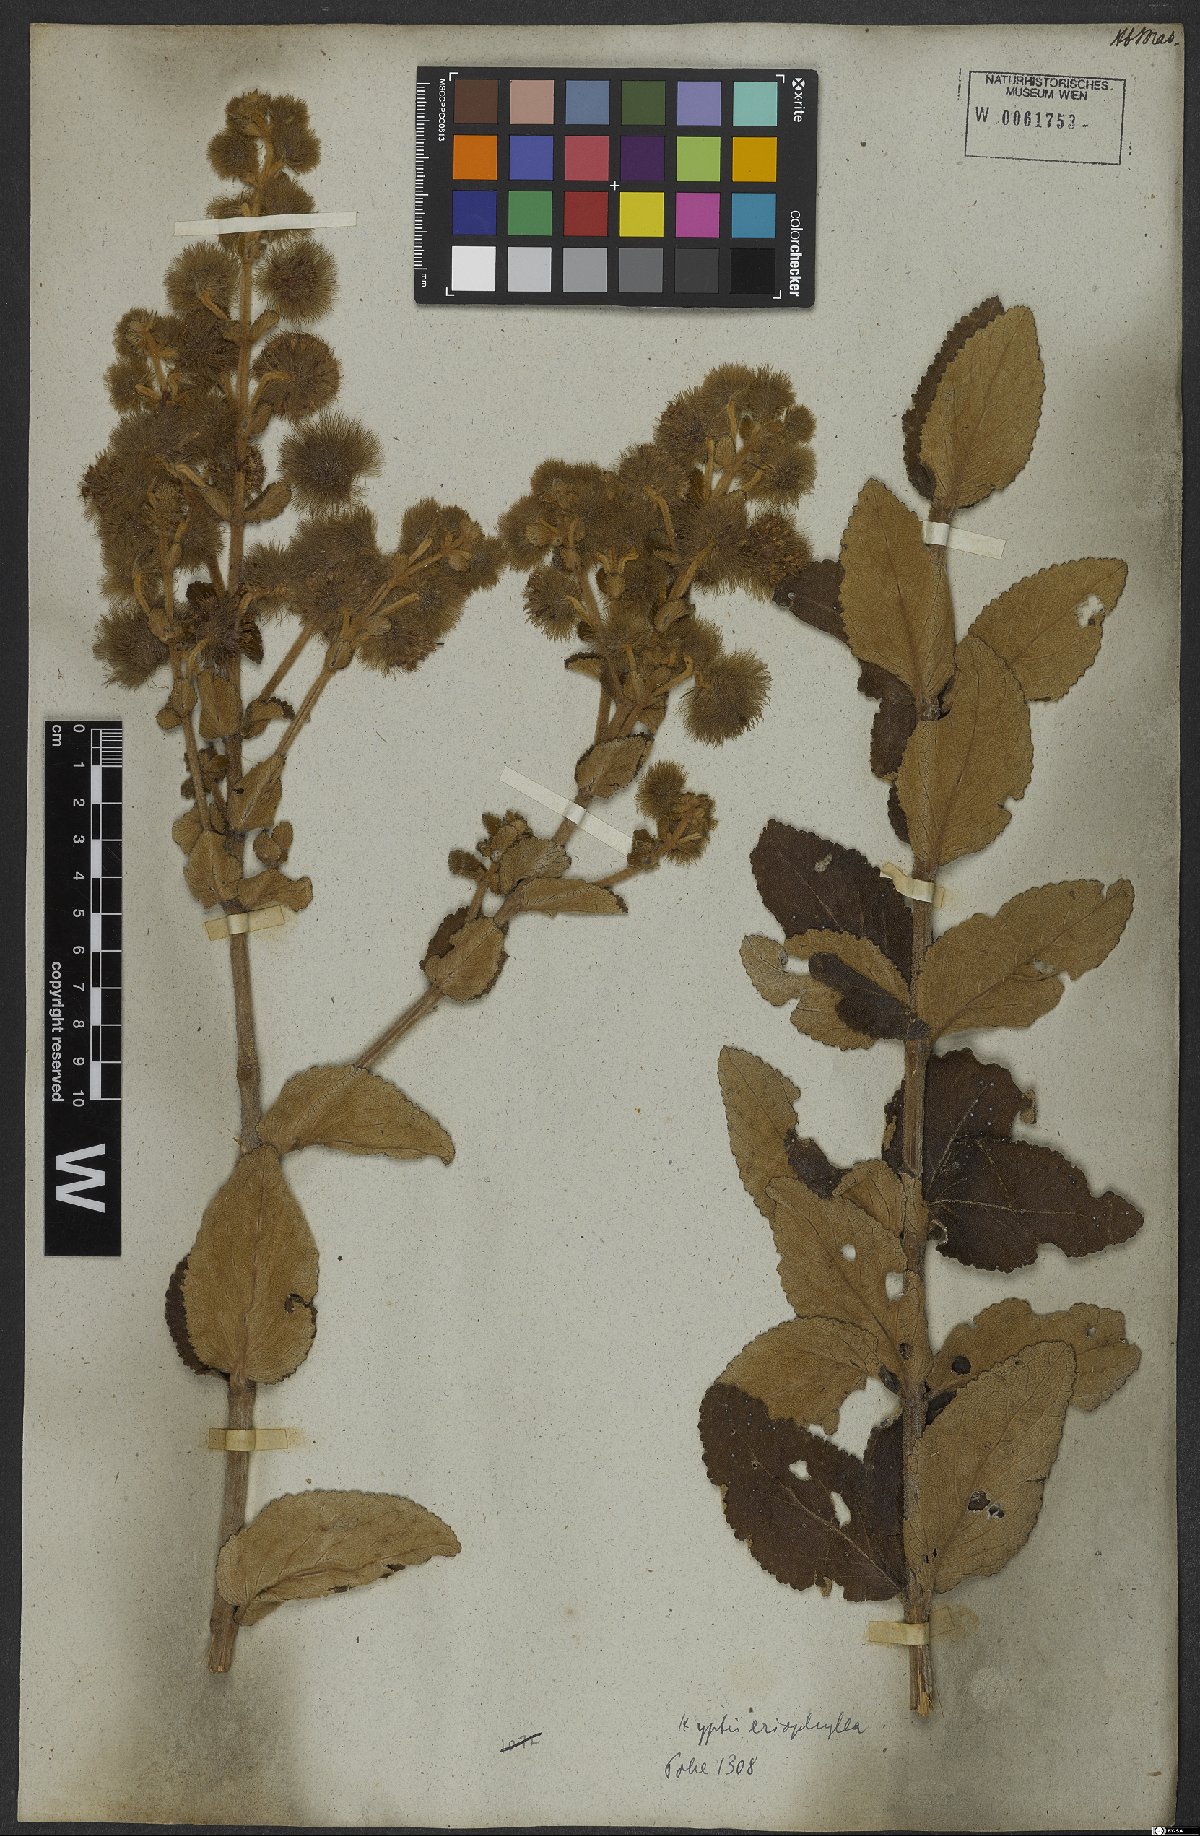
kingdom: Plantae
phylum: Tracheophyta
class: Magnoliopsida
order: Lamiales
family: Lamiaceae
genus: Medusantha
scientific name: Medusantha eriophylla
